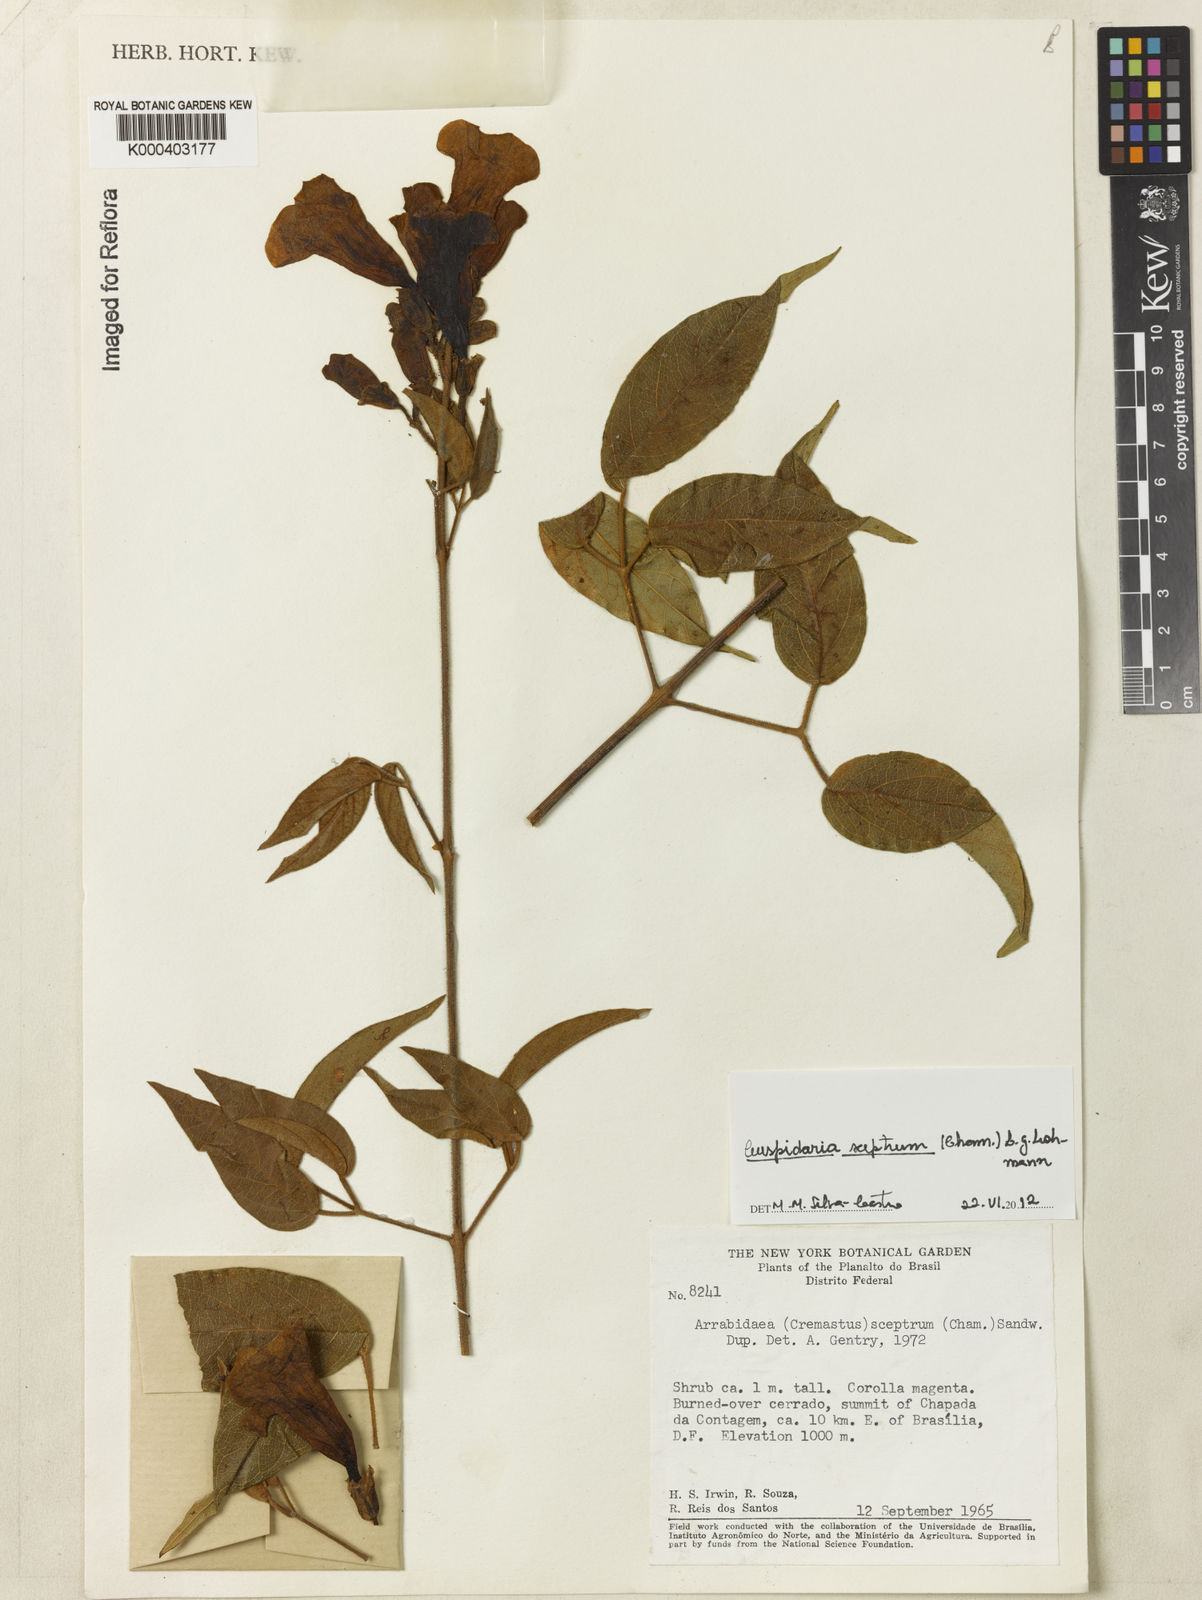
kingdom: Plantae
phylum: Tracheophyta
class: Magnoliopsida
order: Lamiales
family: Bignoniaceae
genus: Cuspidaria
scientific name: Cuspidaria
